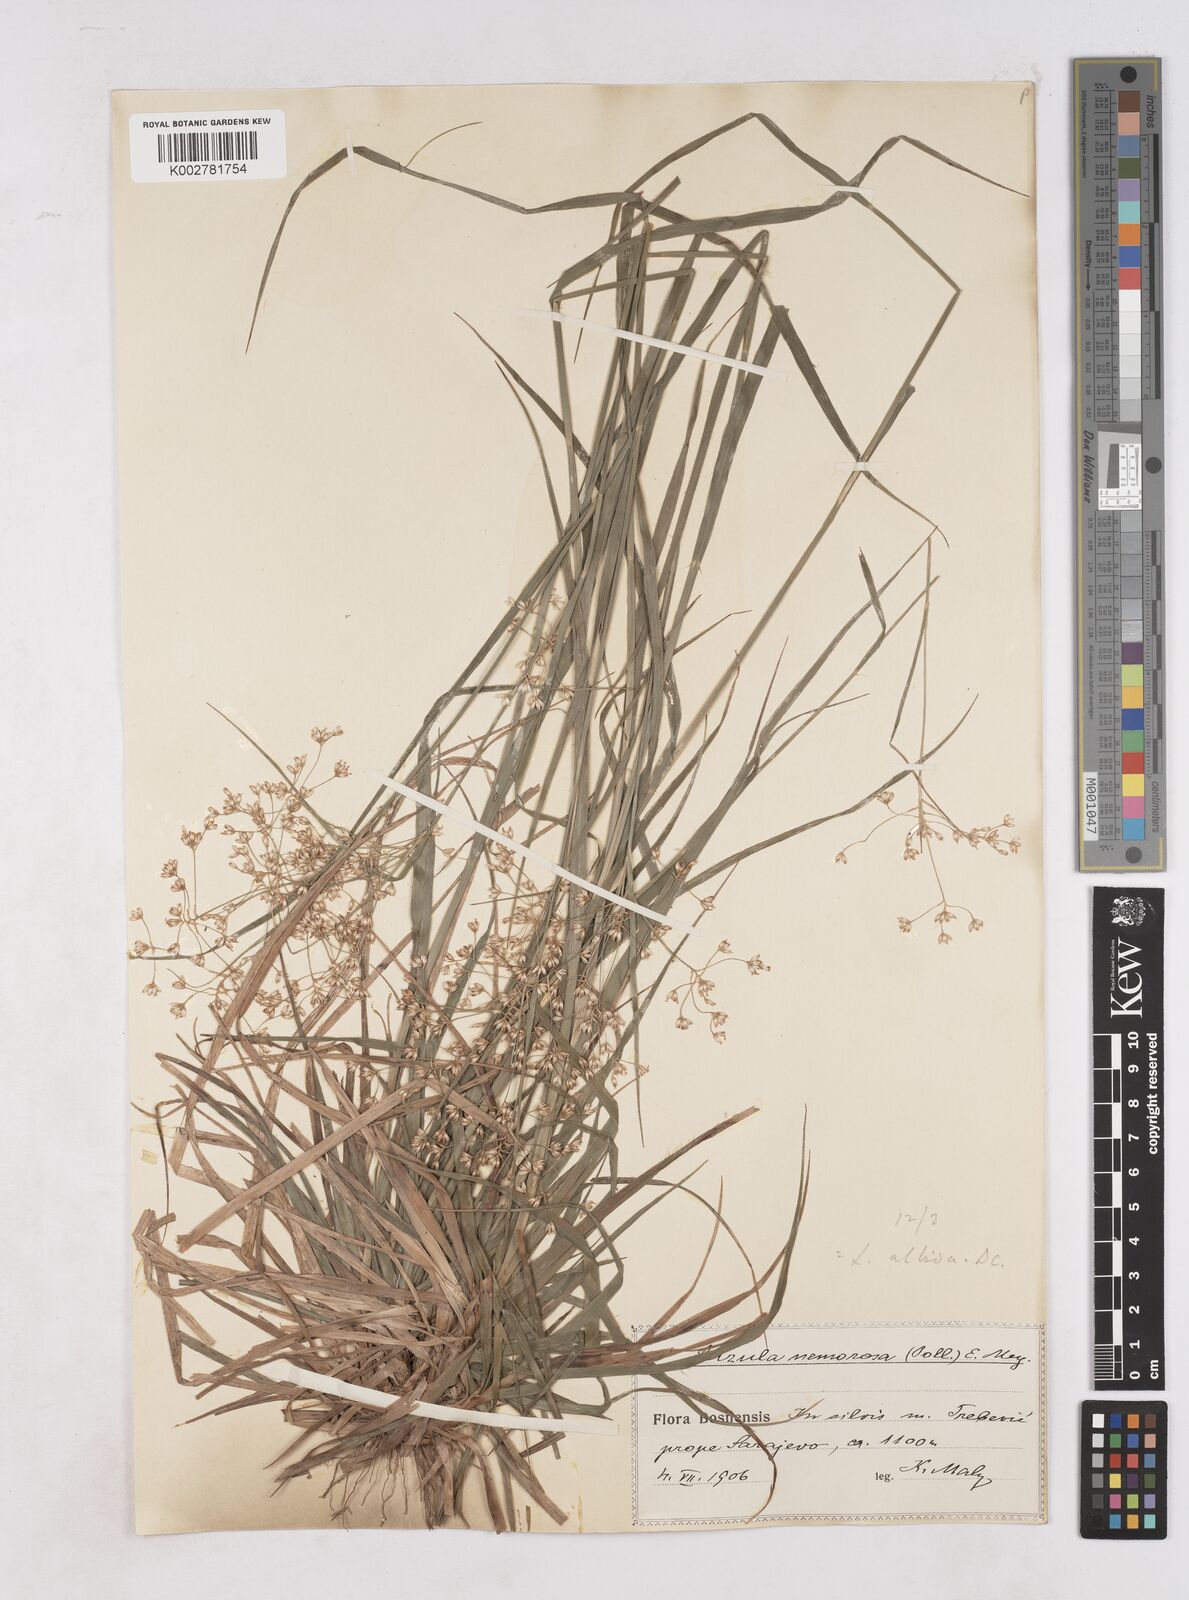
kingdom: Plantae
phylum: Tracheophyta
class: Liliopsida
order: Poales
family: Juncaceae
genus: Luzula
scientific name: Luzula luzuloides
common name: White wood-rush
